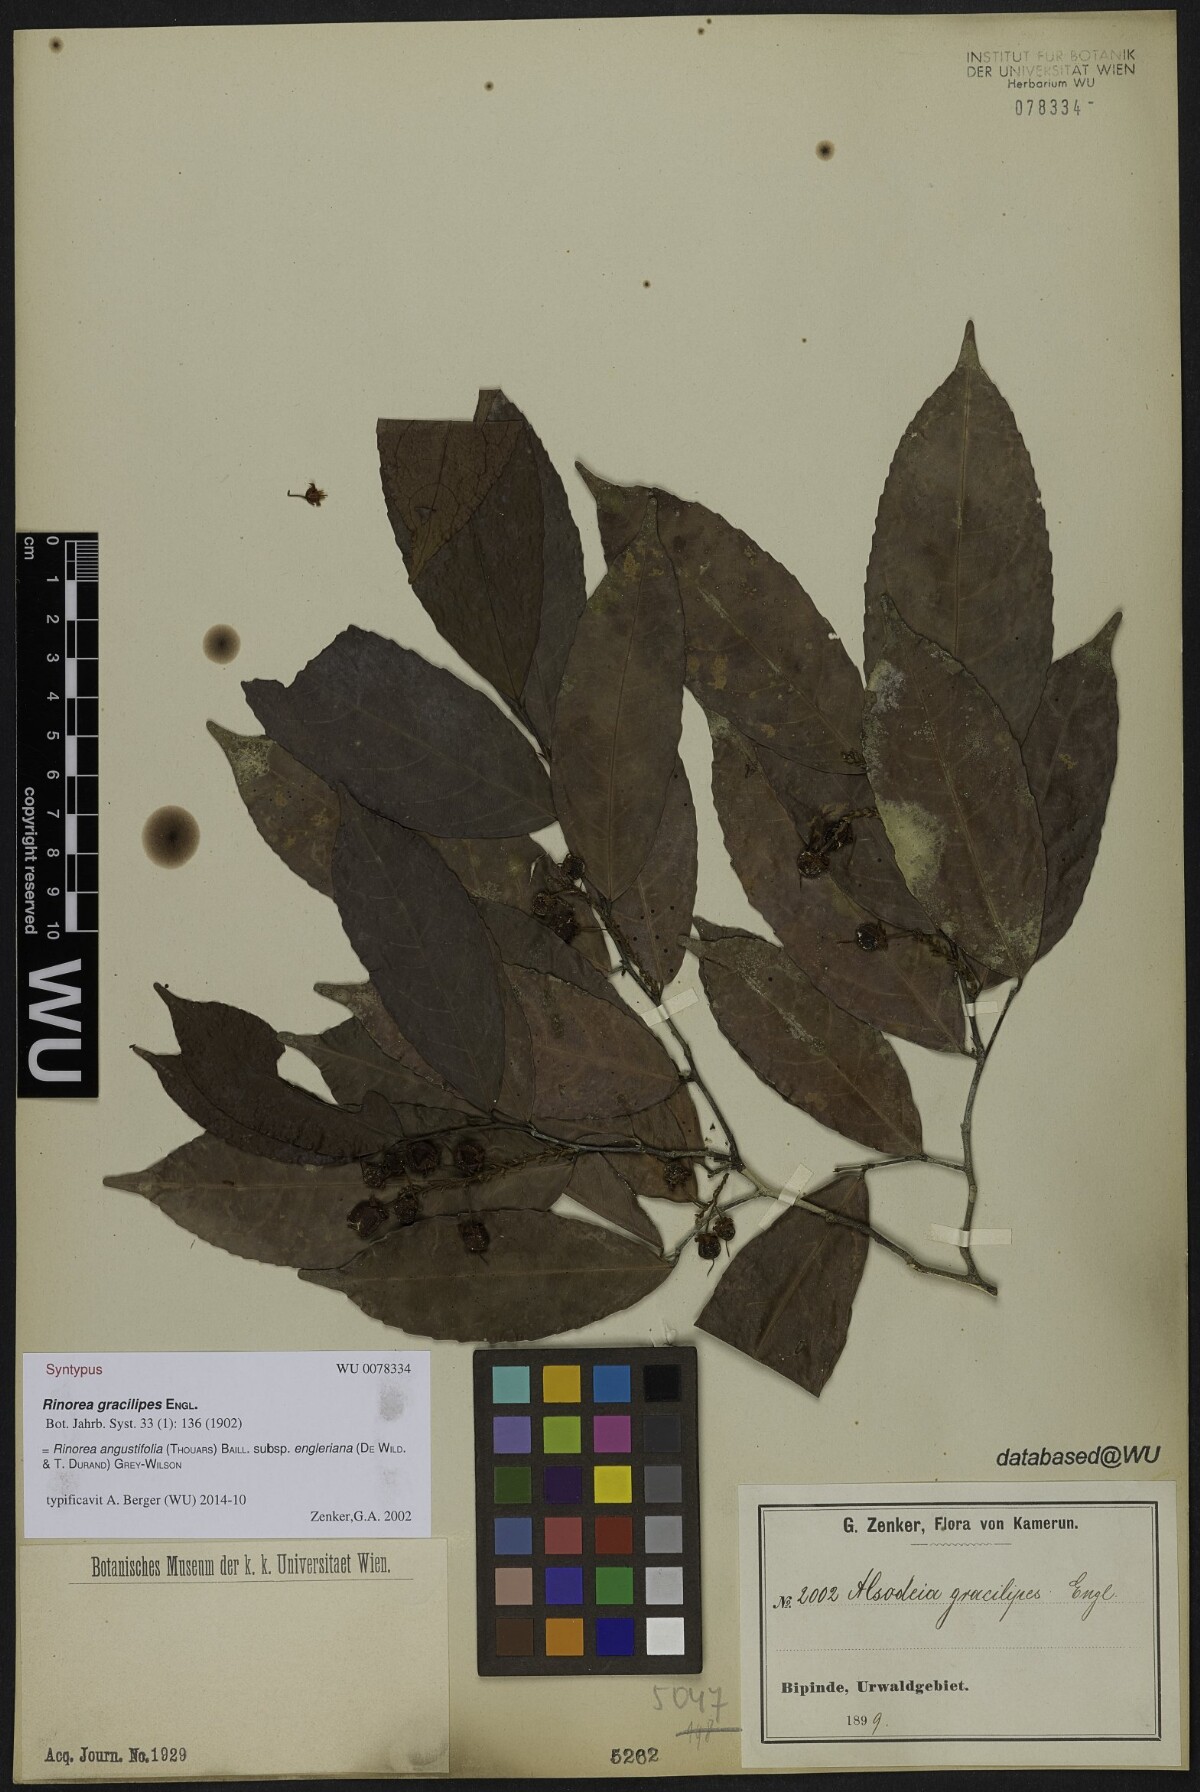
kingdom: Plantae
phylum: Tracheophyta
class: Magnoliopsida
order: Malpighiales
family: Violaceae
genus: Rinorea
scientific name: Rinorea angustifolia
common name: White violet-bush
